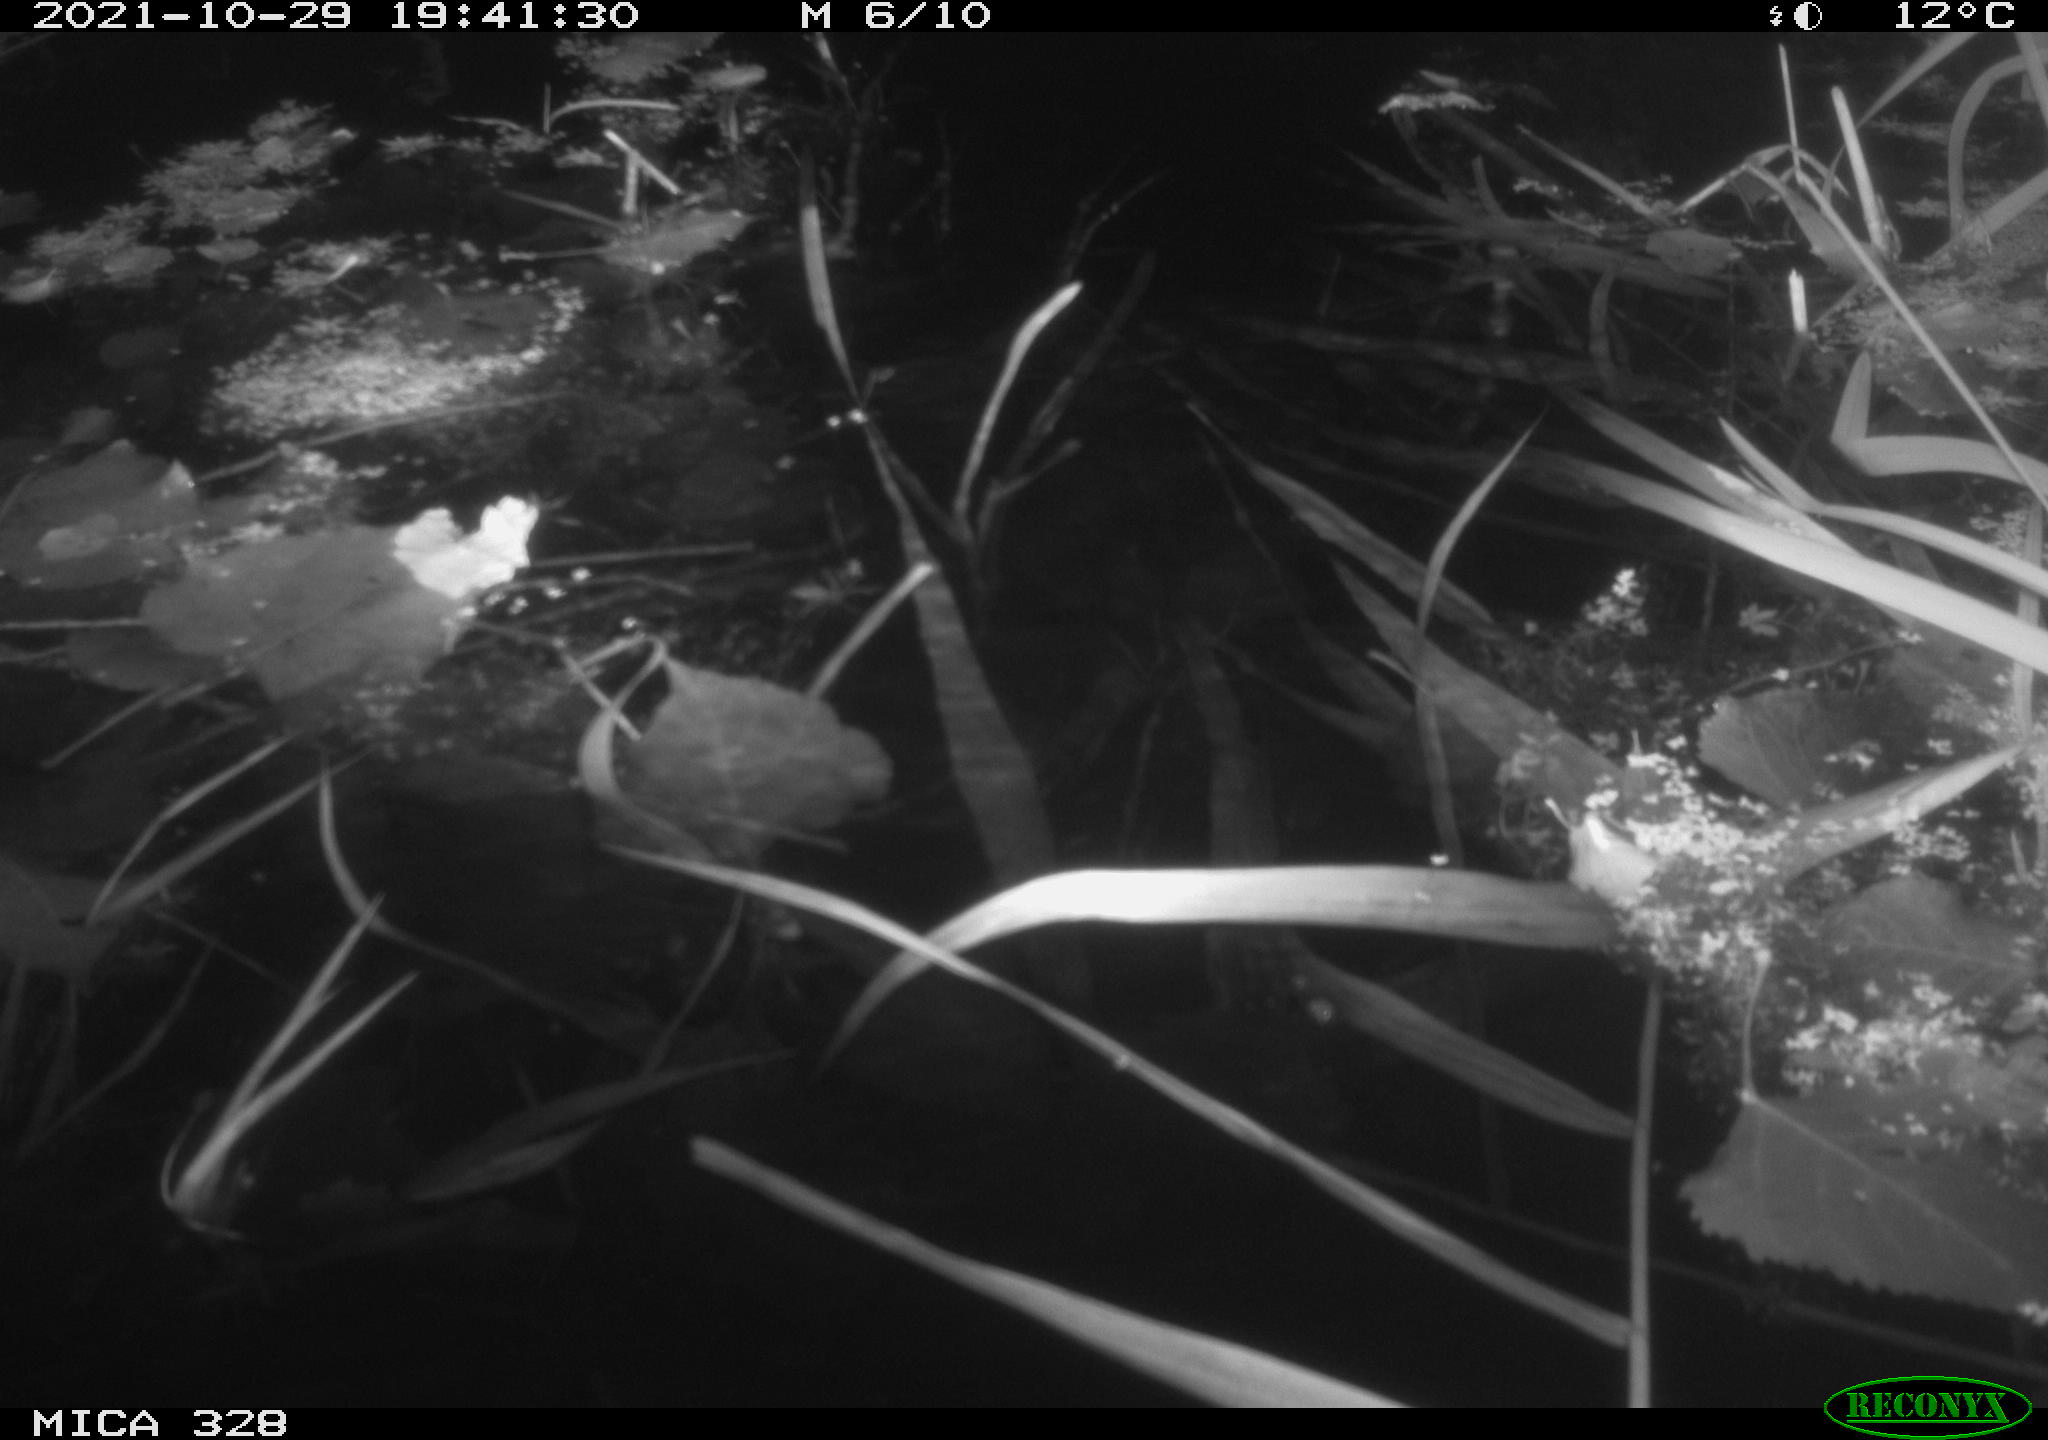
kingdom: Animalia
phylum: Chordata
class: Mammalia
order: Rodentia
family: Cricetidae
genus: Ondatra
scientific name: Ondatra zibethicus
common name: Muskrat
